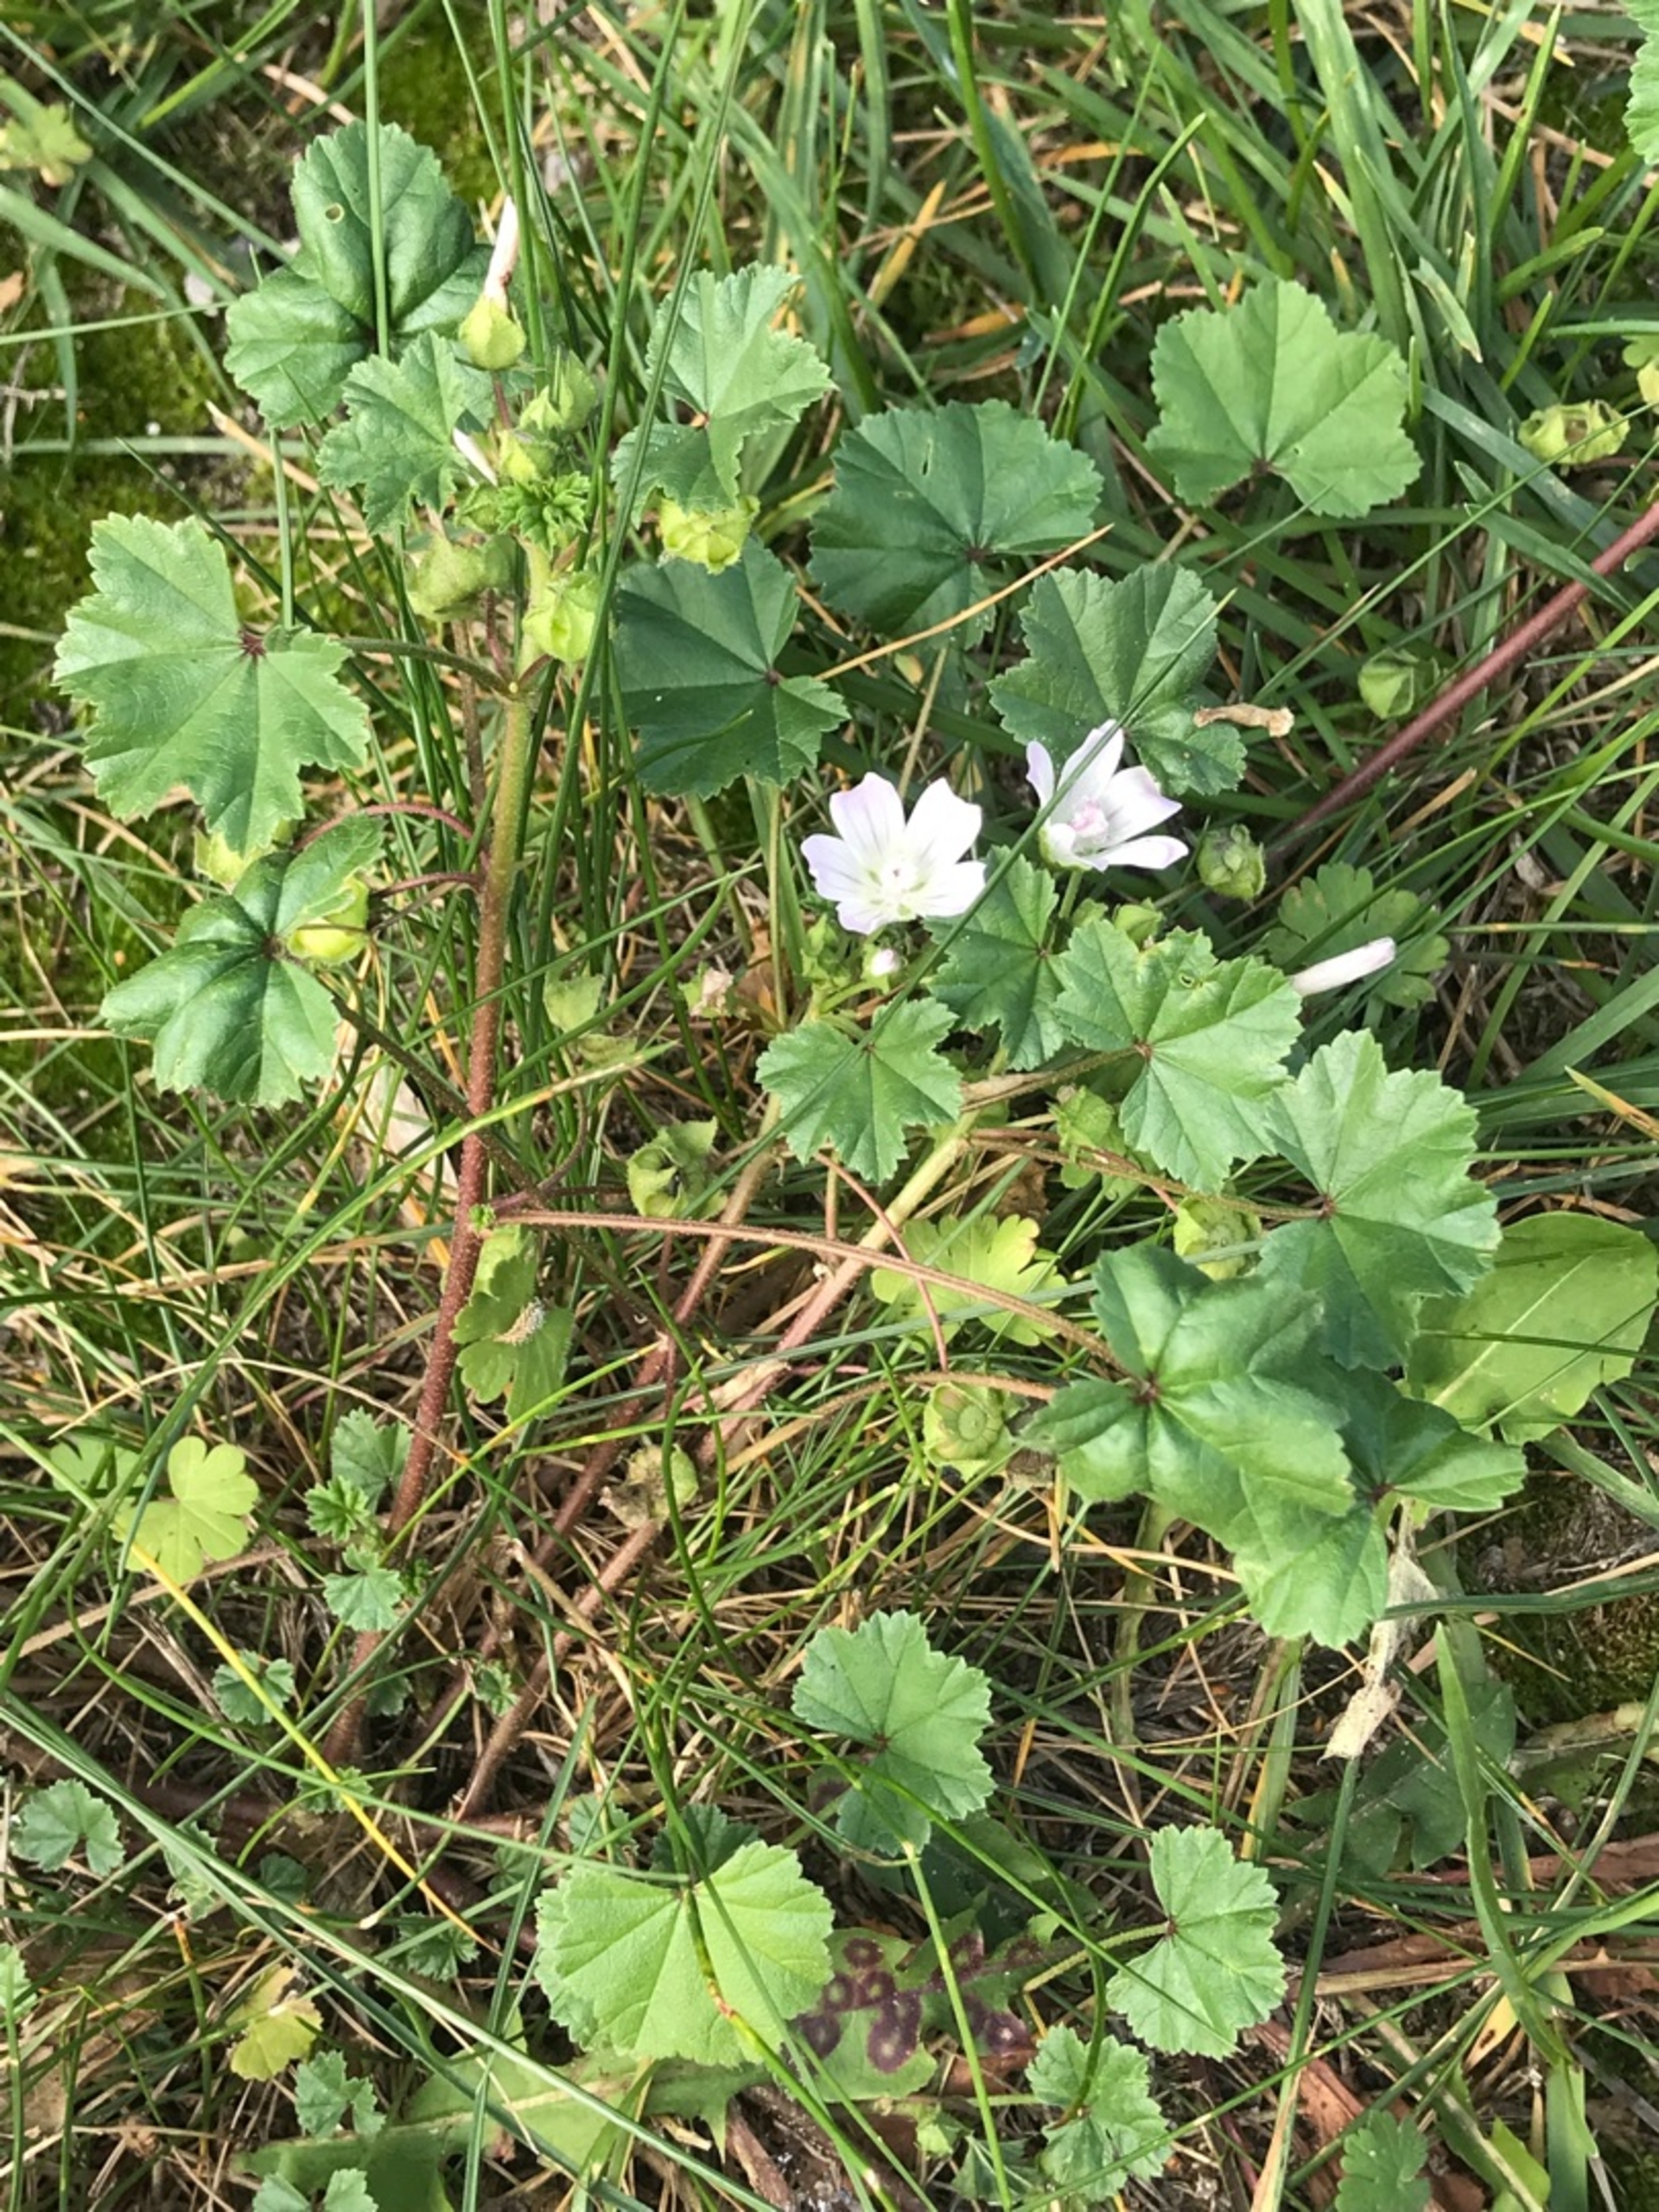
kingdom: Plantae
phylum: Tracheophyta
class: Magnoliopsida
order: Malvales
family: Malvaceae
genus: Malva
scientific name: Malva neglecta
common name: Rundbladet katost
